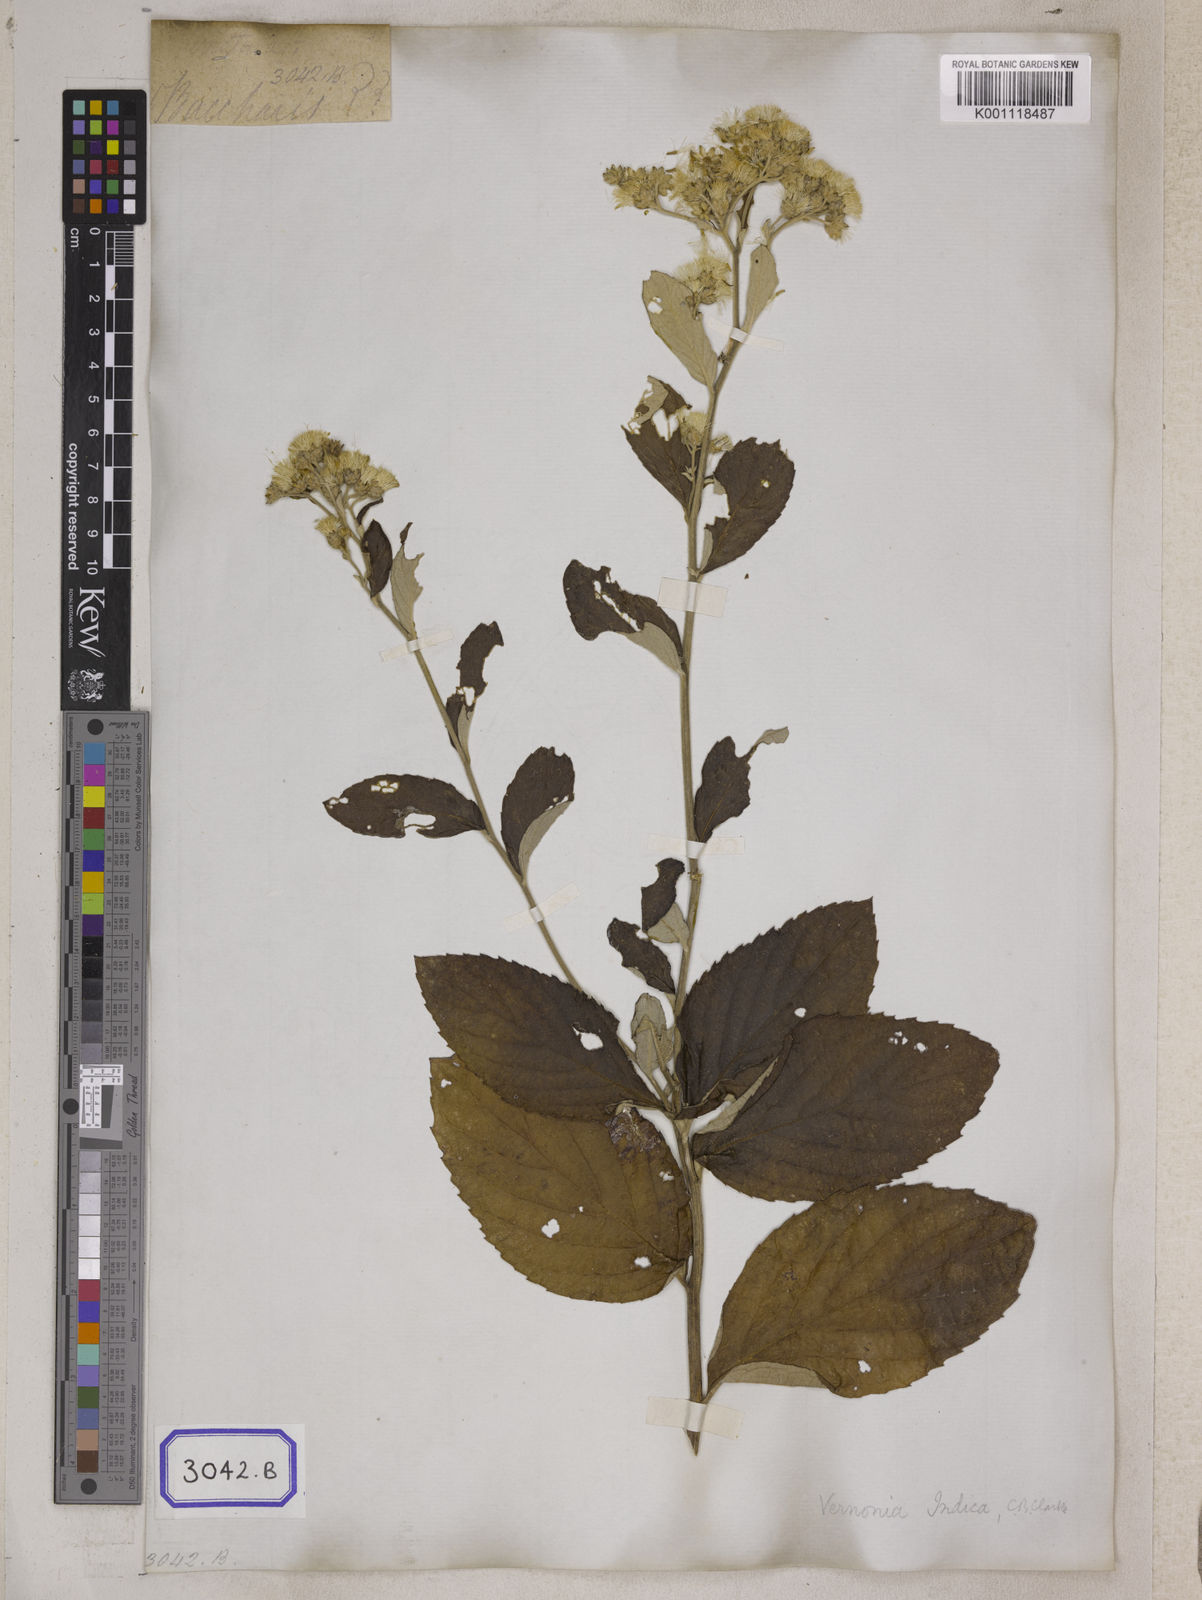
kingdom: Plantae
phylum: Tracheophyta
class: Magnoliopsida
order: Asterales
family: Asteraceae
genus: Acilepis
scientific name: Acilepis dendigulensis
